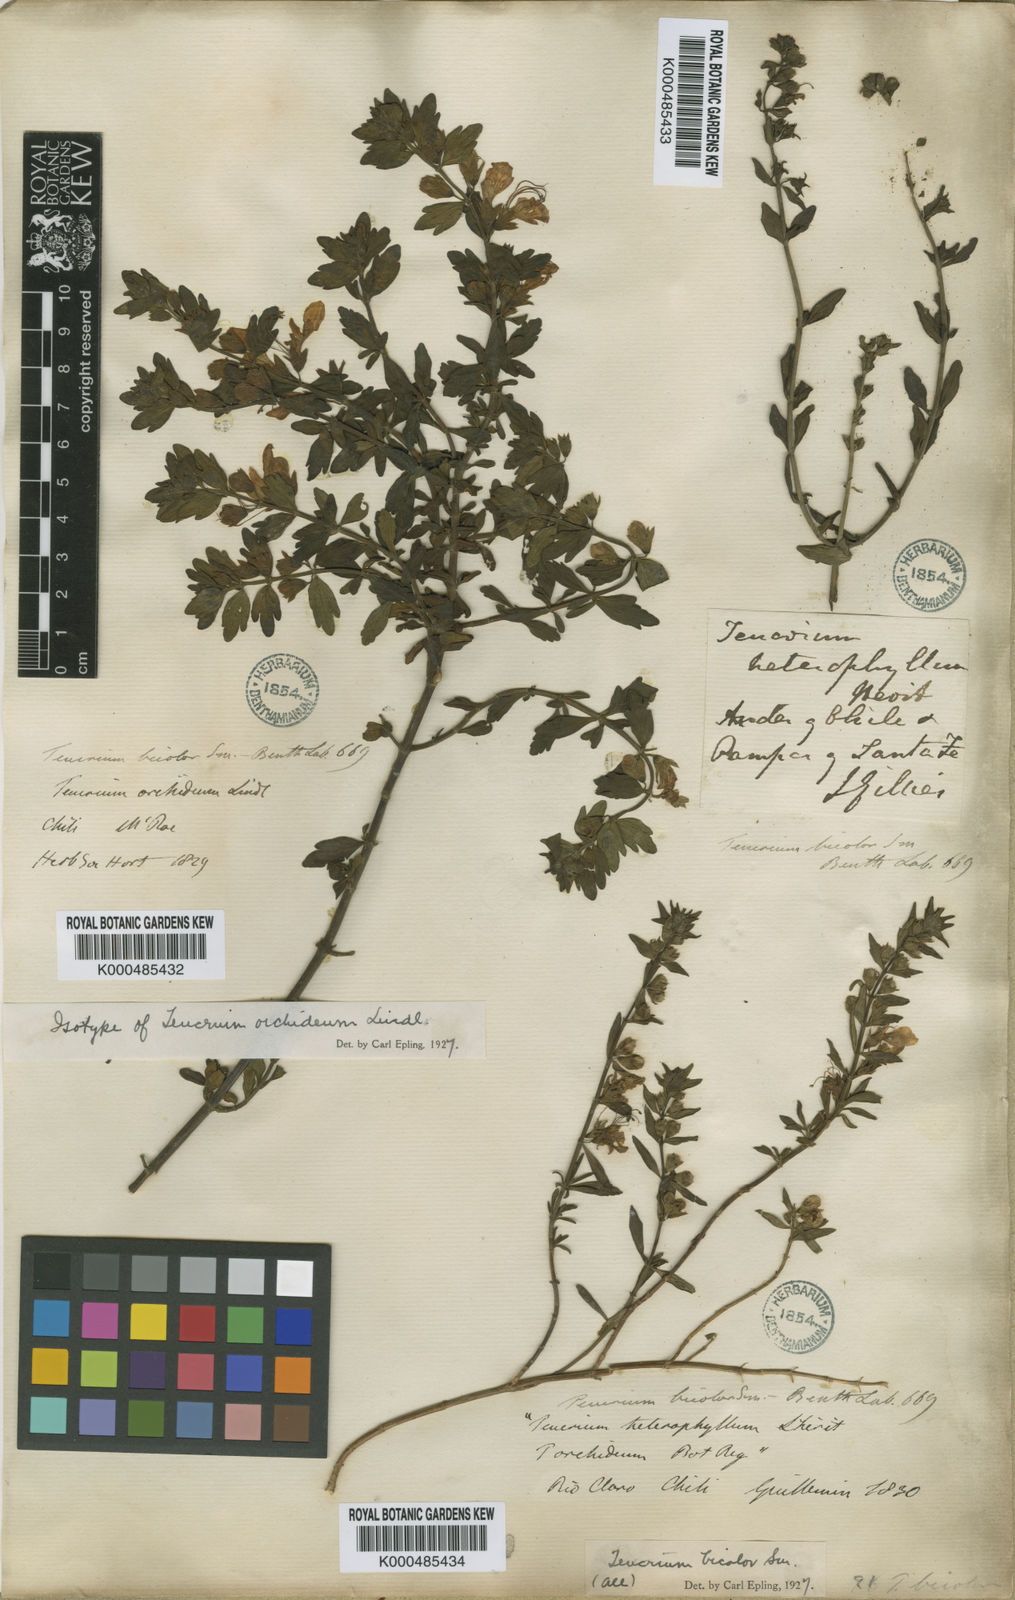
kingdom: Plantae
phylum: Tracheophyta
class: Magnoliopsida
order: Lamiales
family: Lamiaceae
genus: Teucrium
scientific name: Teucrium bicolor
